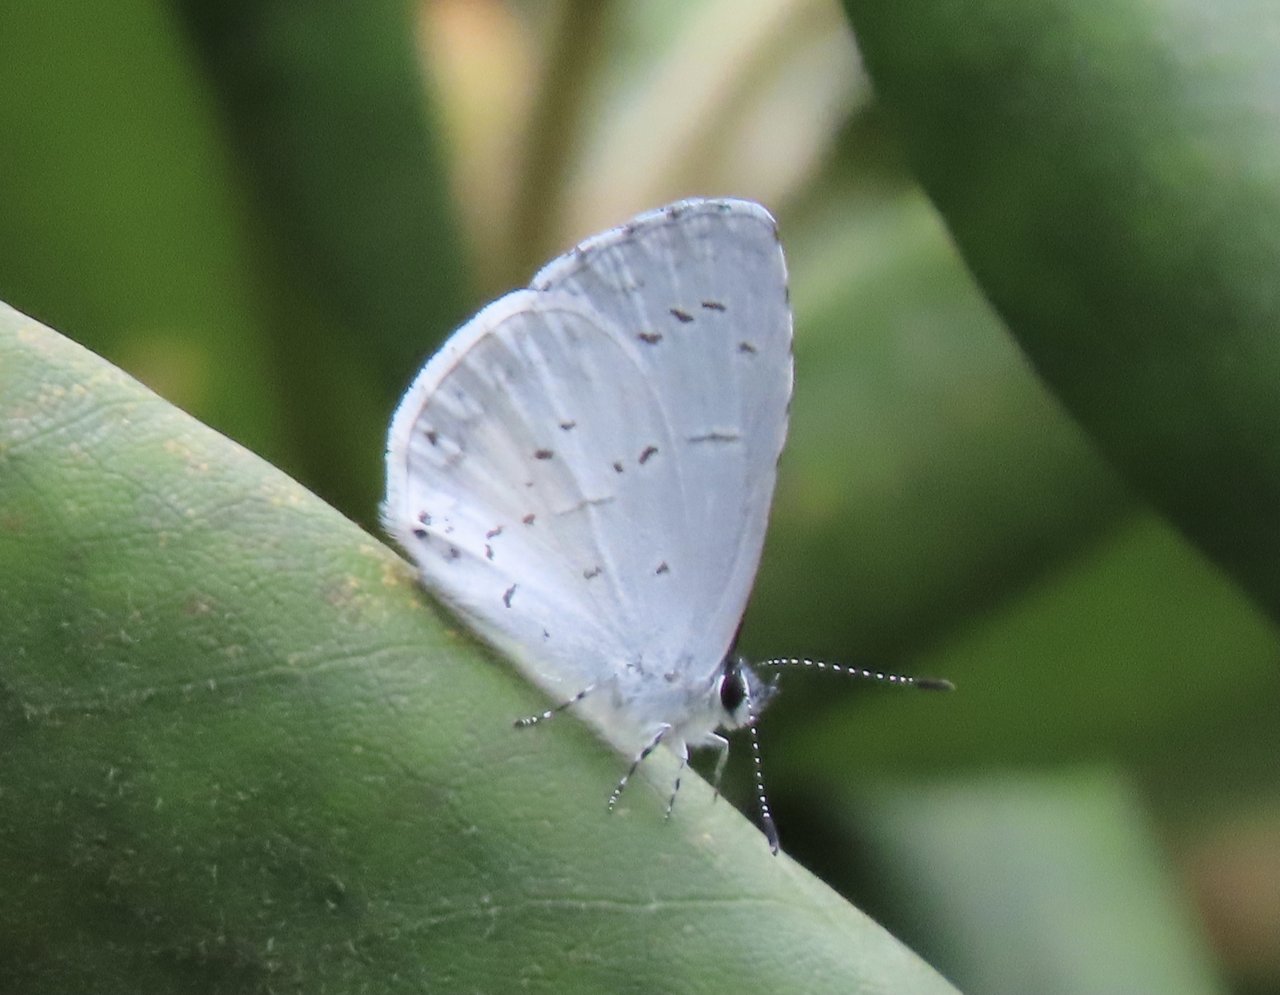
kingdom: Animalia
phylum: Arthropoda
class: Insecta
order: Lepidoptera
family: Lycaenidae
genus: Cyaniris
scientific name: Cyaniris neglecta
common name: Summer Azure
